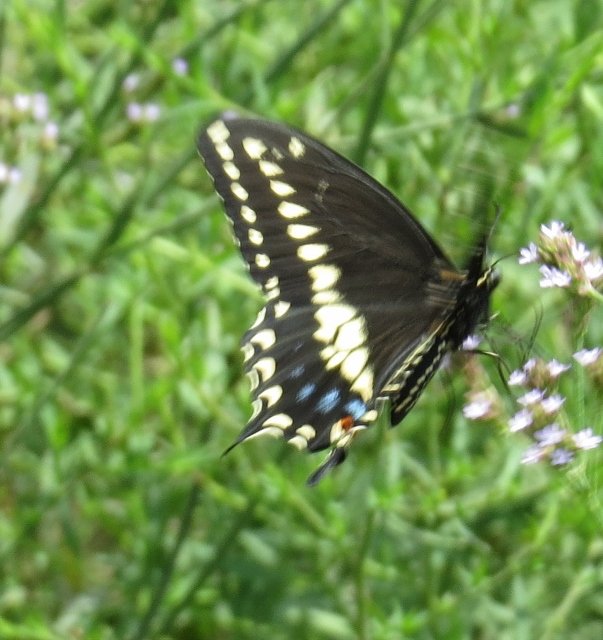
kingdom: Animalia
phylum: Arthropoda
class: Insecta
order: Lepidoptera
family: Papilionidae
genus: Papilio
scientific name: Papilio polyxenes
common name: Black Swallowtail
